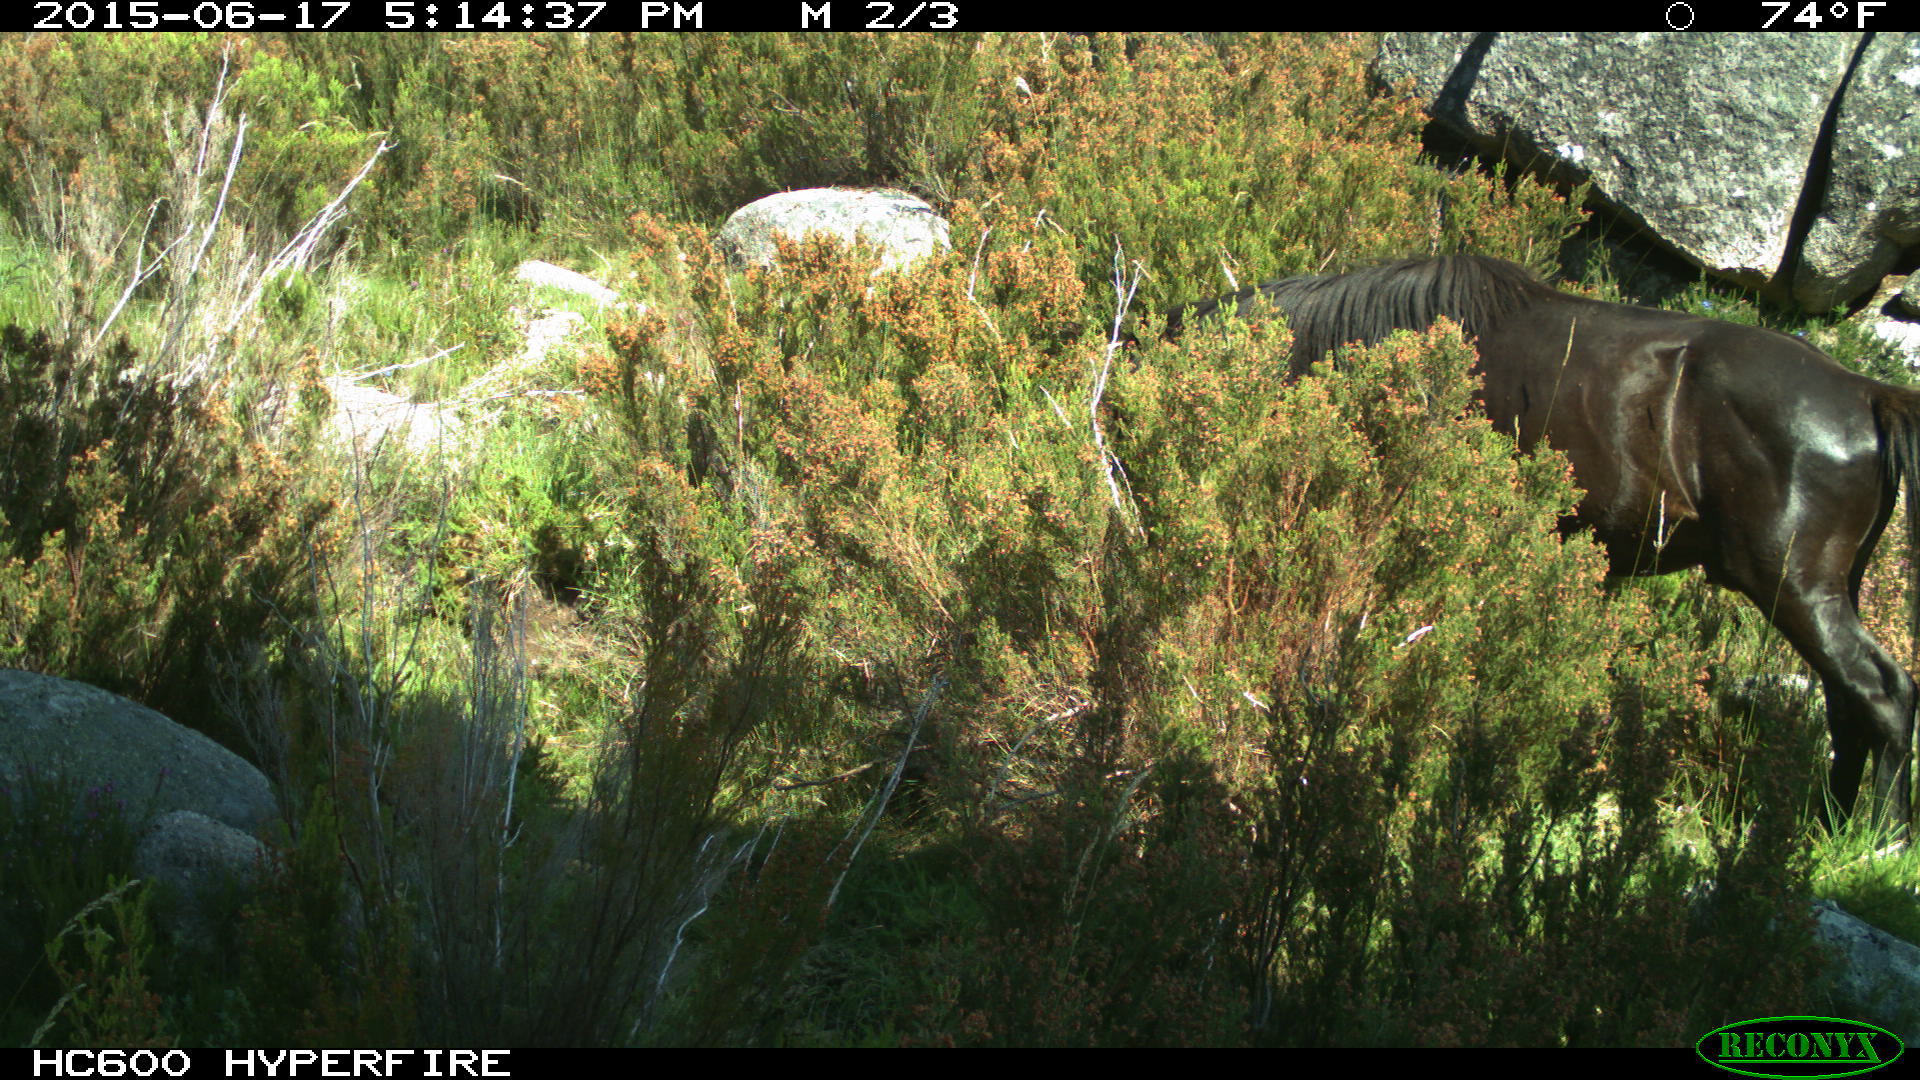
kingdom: Animalia
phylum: Chordata
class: Mammalia
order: Perissodactyla
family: Equidae
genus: Equus
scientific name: Equus caballus
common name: Horse
